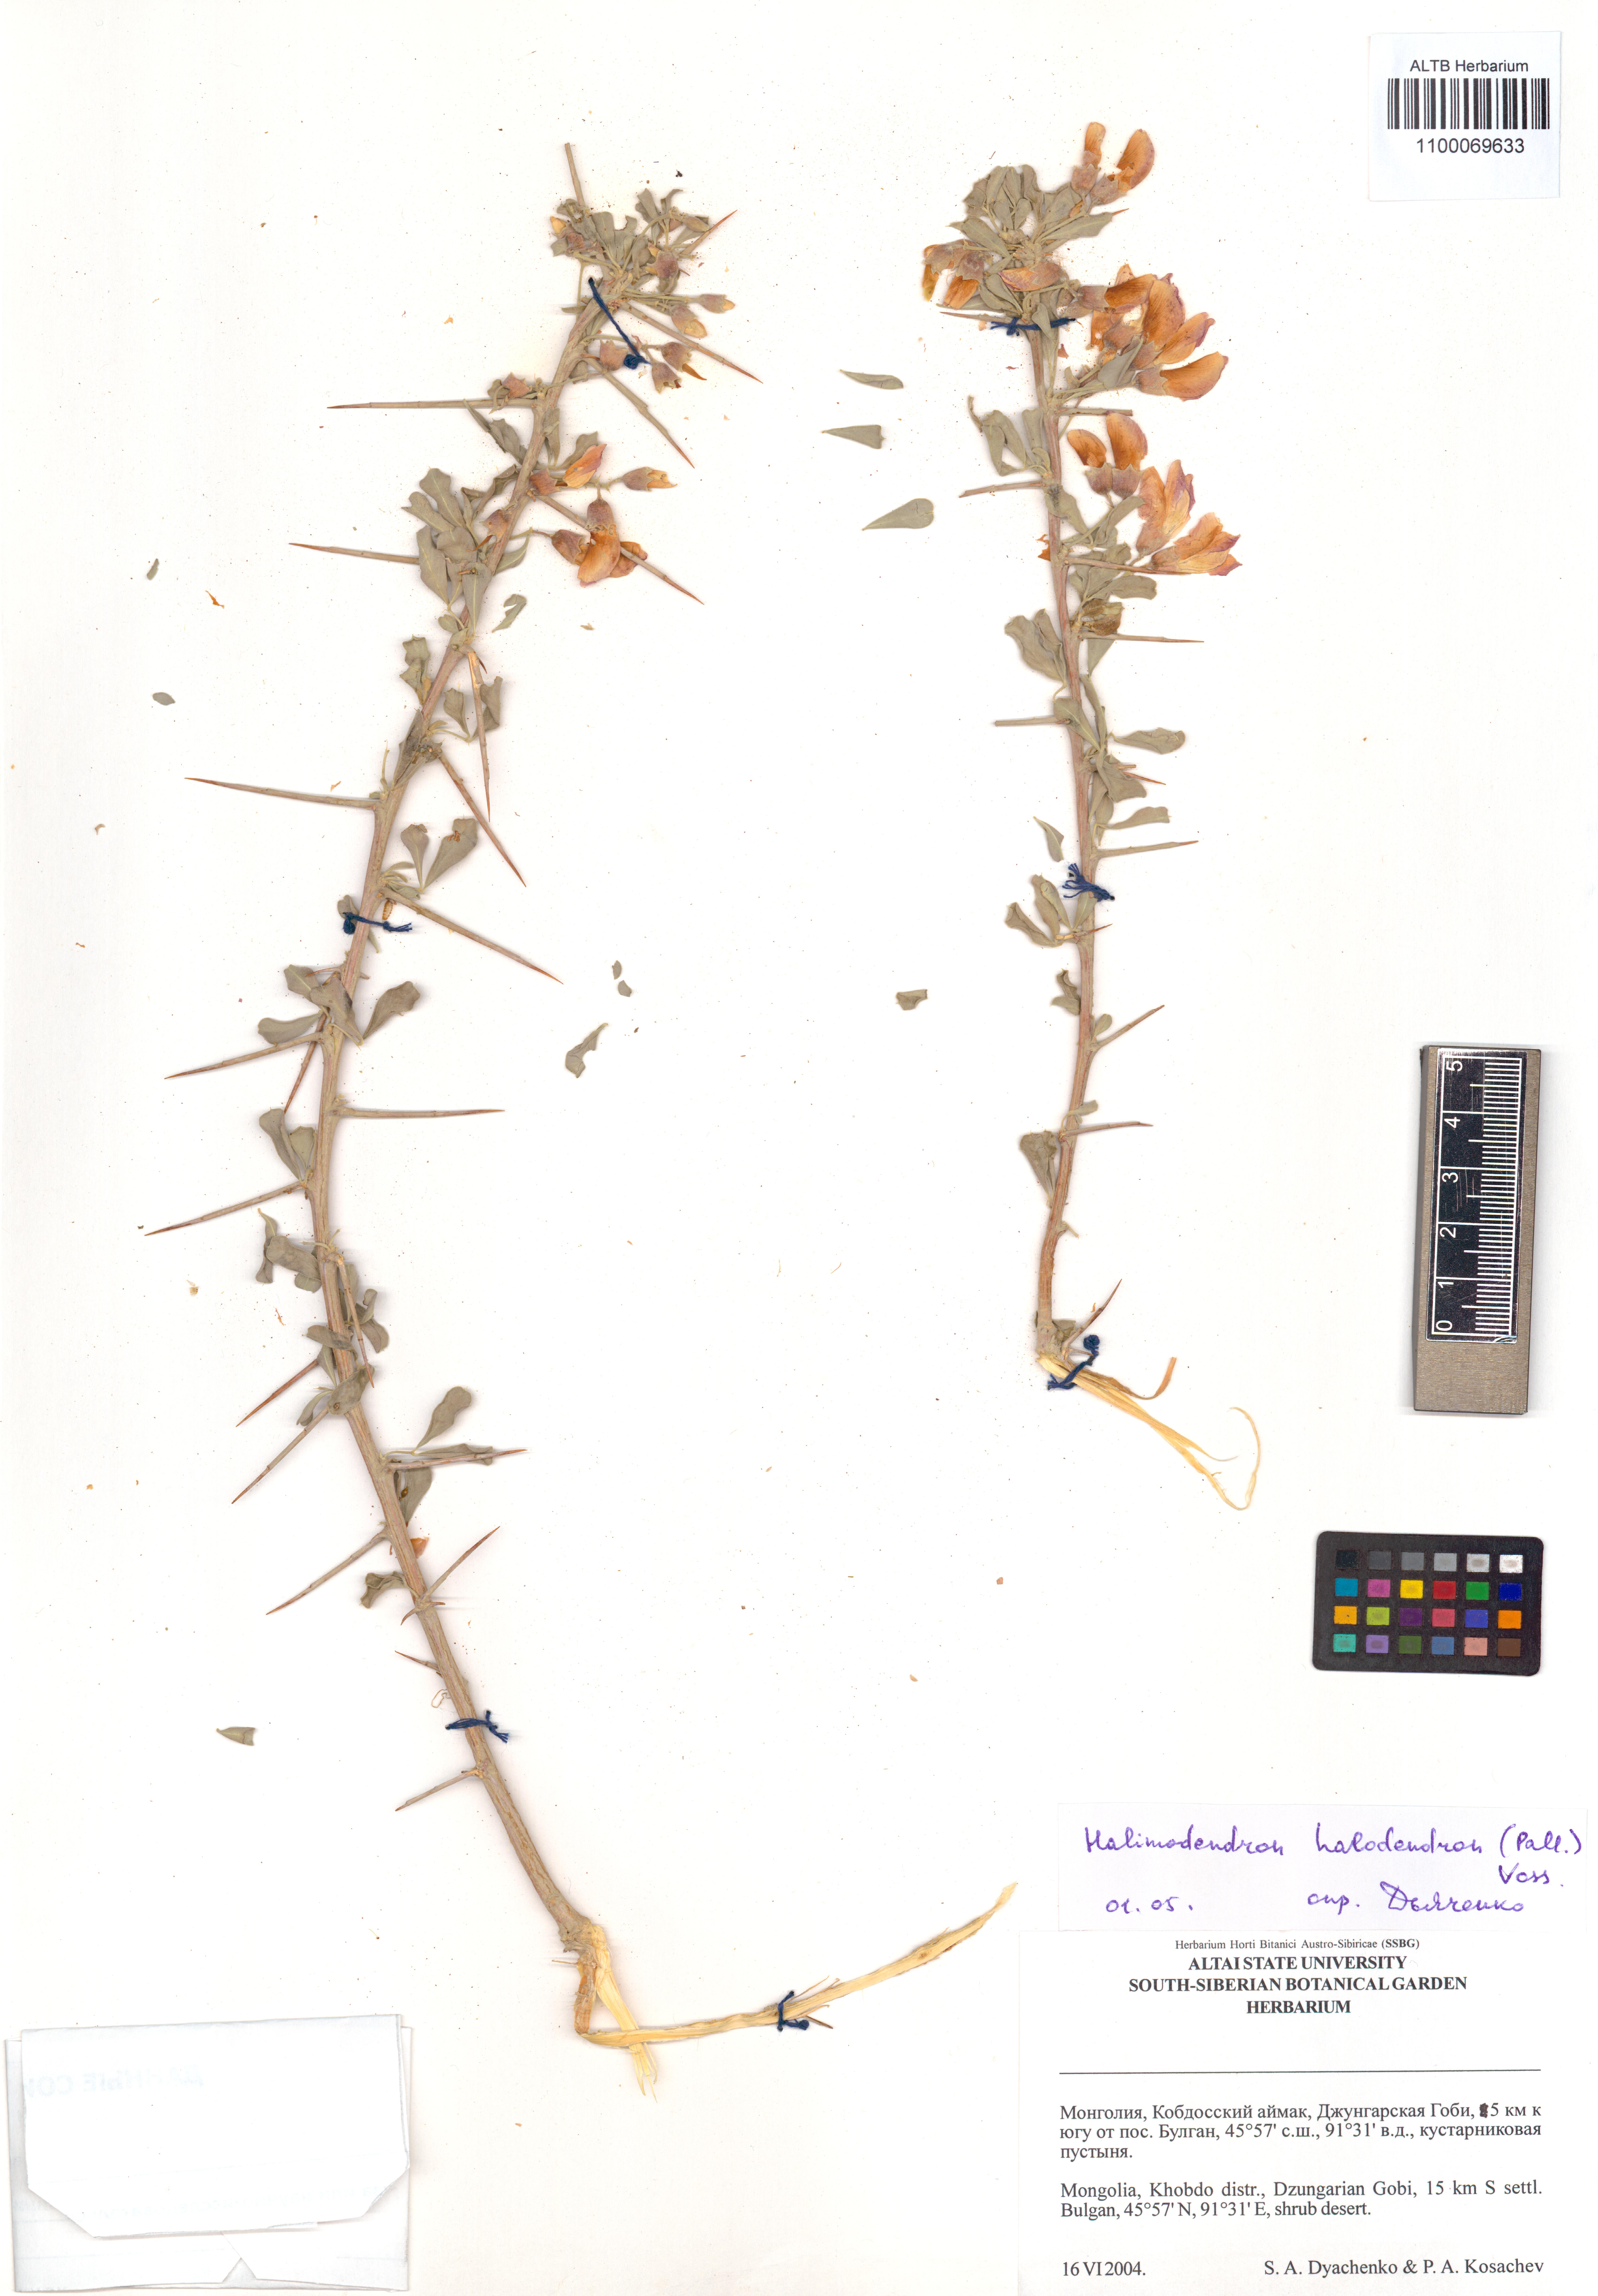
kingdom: Plantae
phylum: Tracheophyta
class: Magnoliopsida
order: Fabales
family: Fabaceae
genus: Caragana
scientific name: Caragana halodendron
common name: Siberian salt-tree
